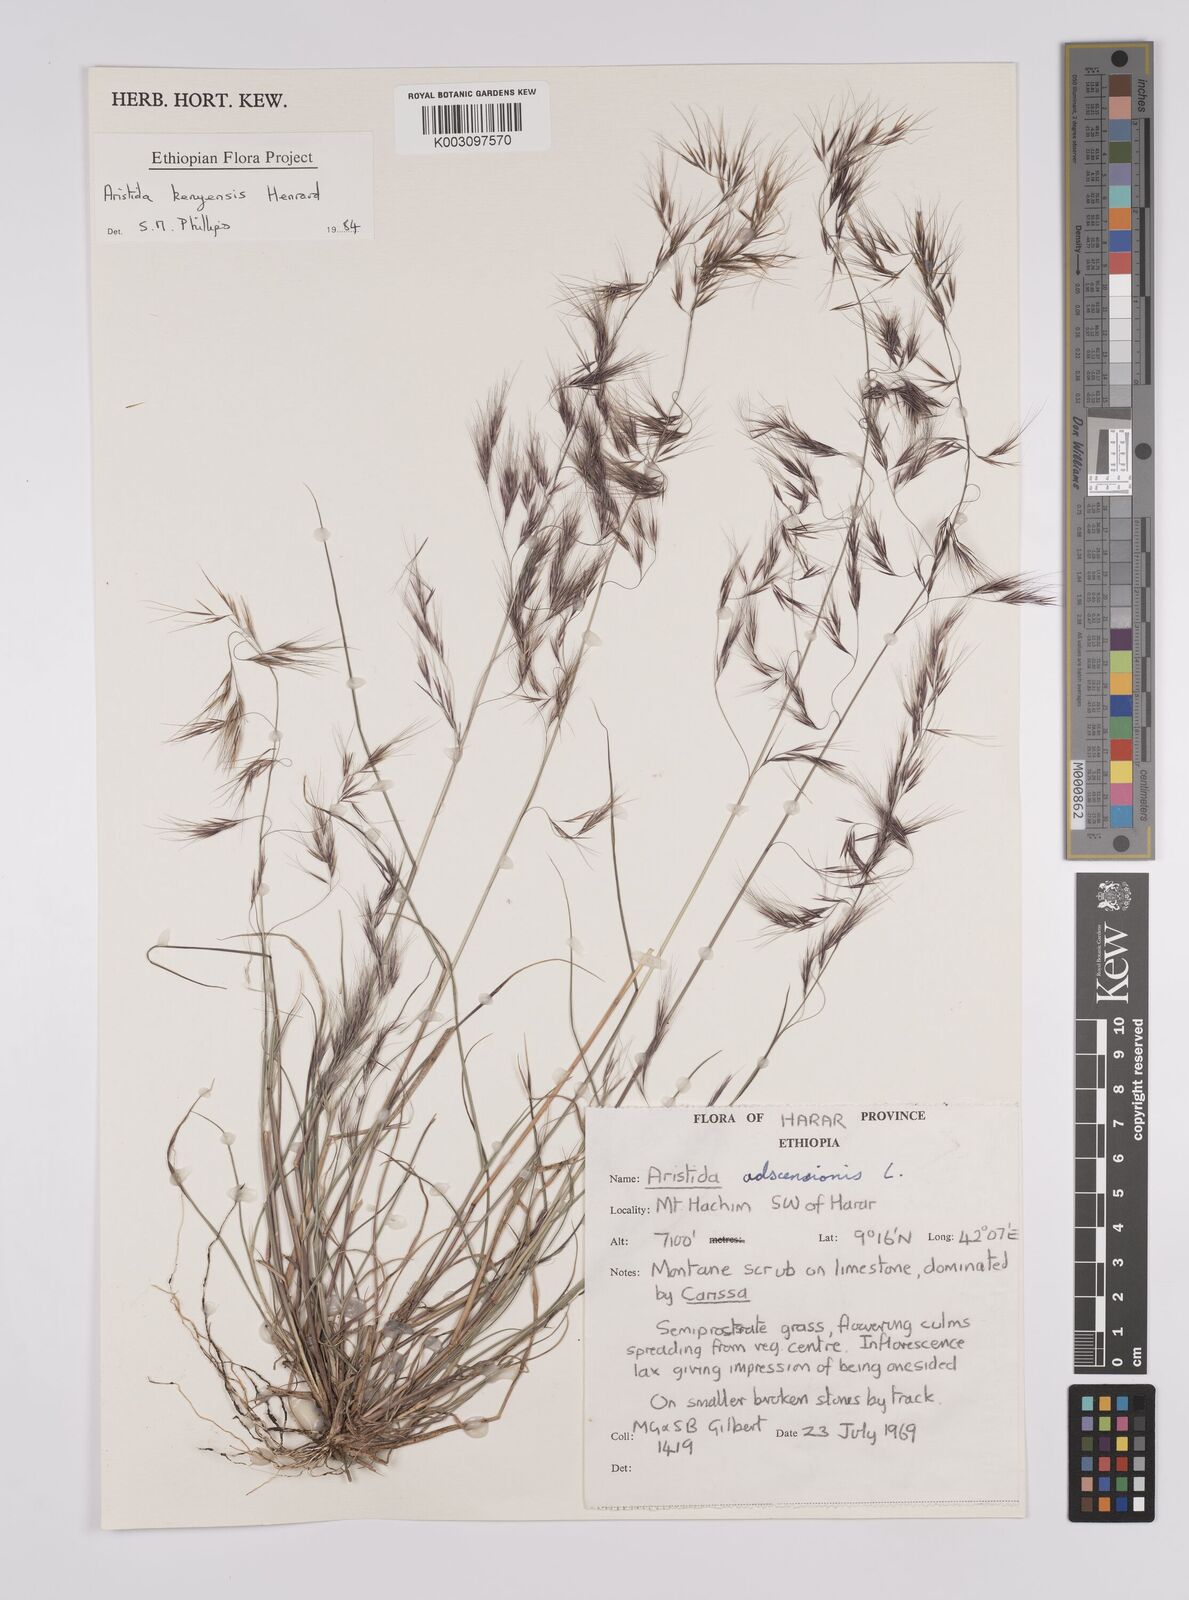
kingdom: Plantae
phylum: Tracheophyta
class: Liliopsida
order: Poales
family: Poaceae
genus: Aristida
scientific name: Aristida kenyensis
